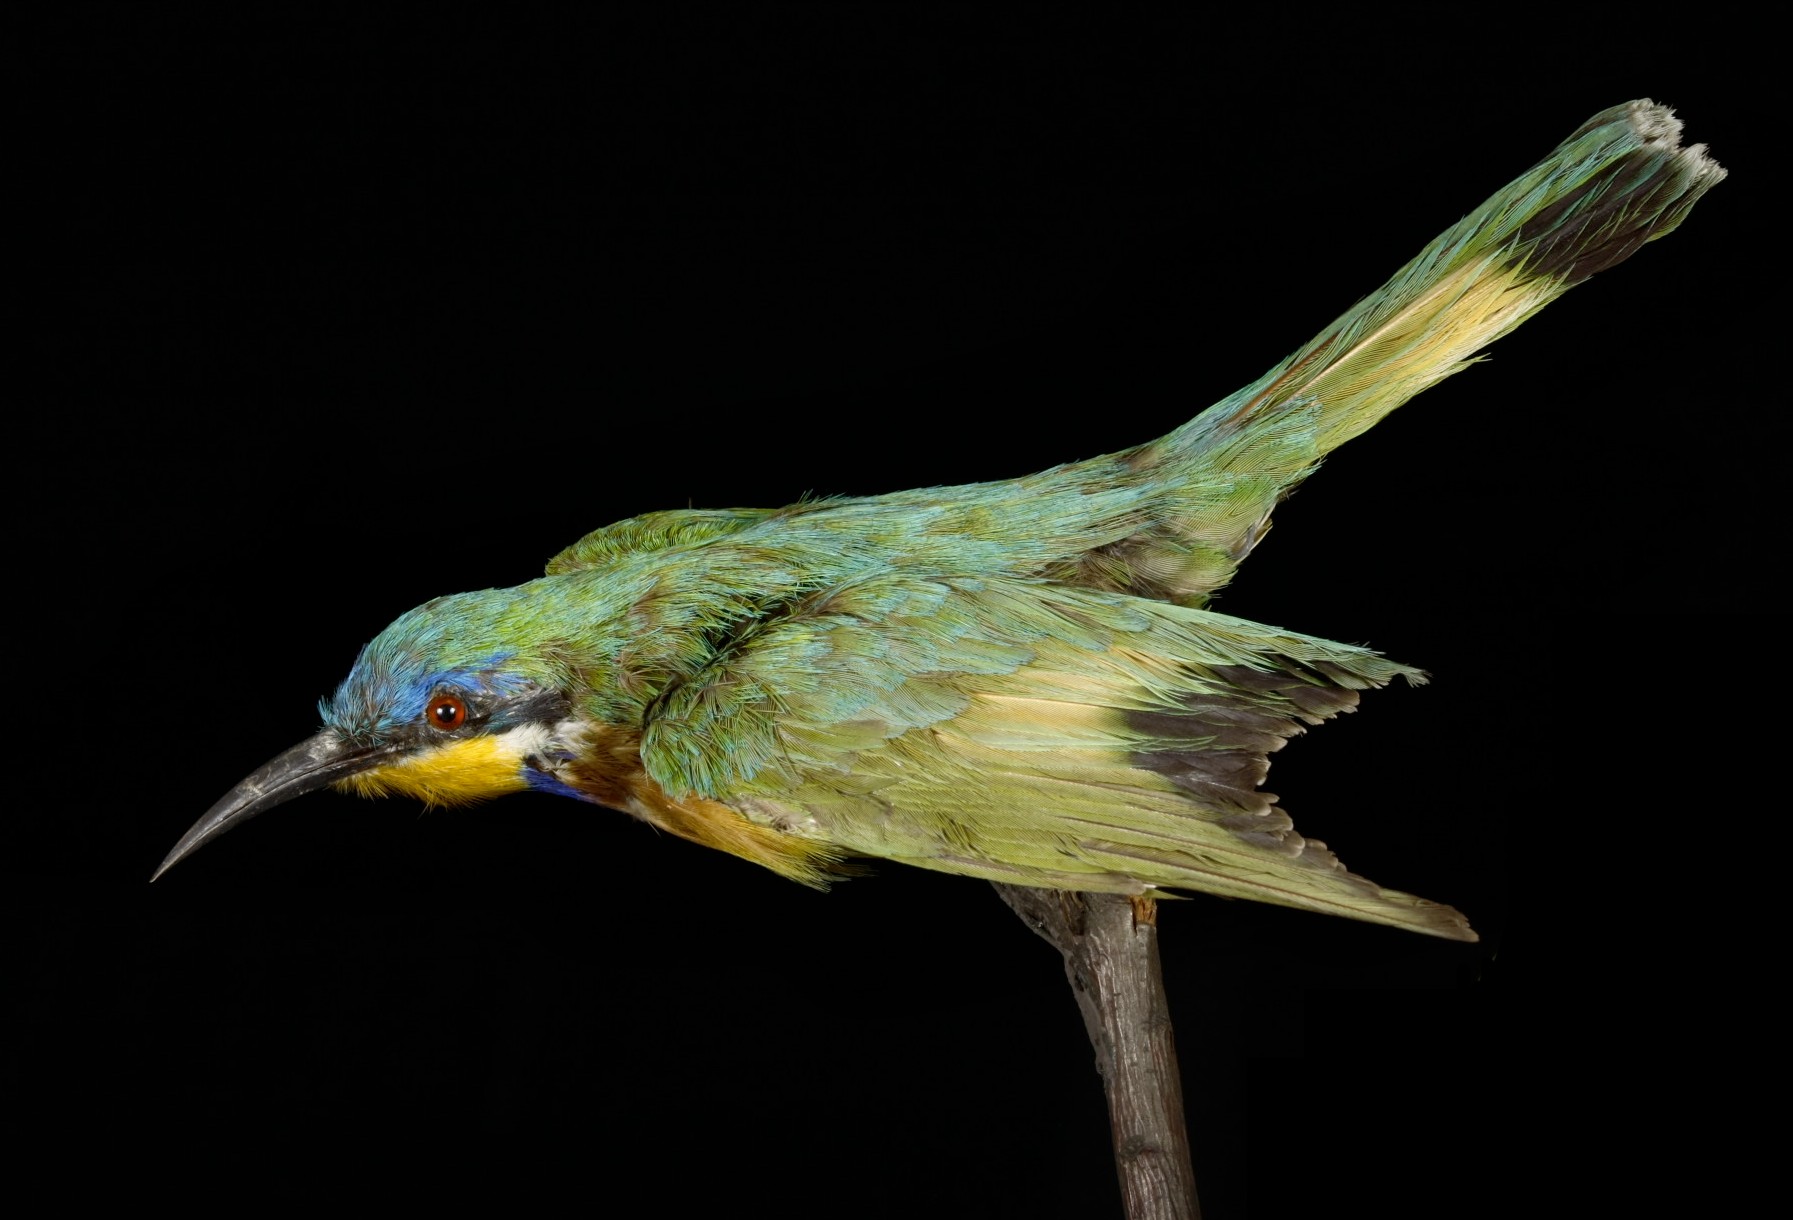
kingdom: Animalia
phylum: Chordata
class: Aves
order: Coraciiformes
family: Meropidae
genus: Merops
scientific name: Merops lafresnayii
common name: Ethiopian bee-eater
